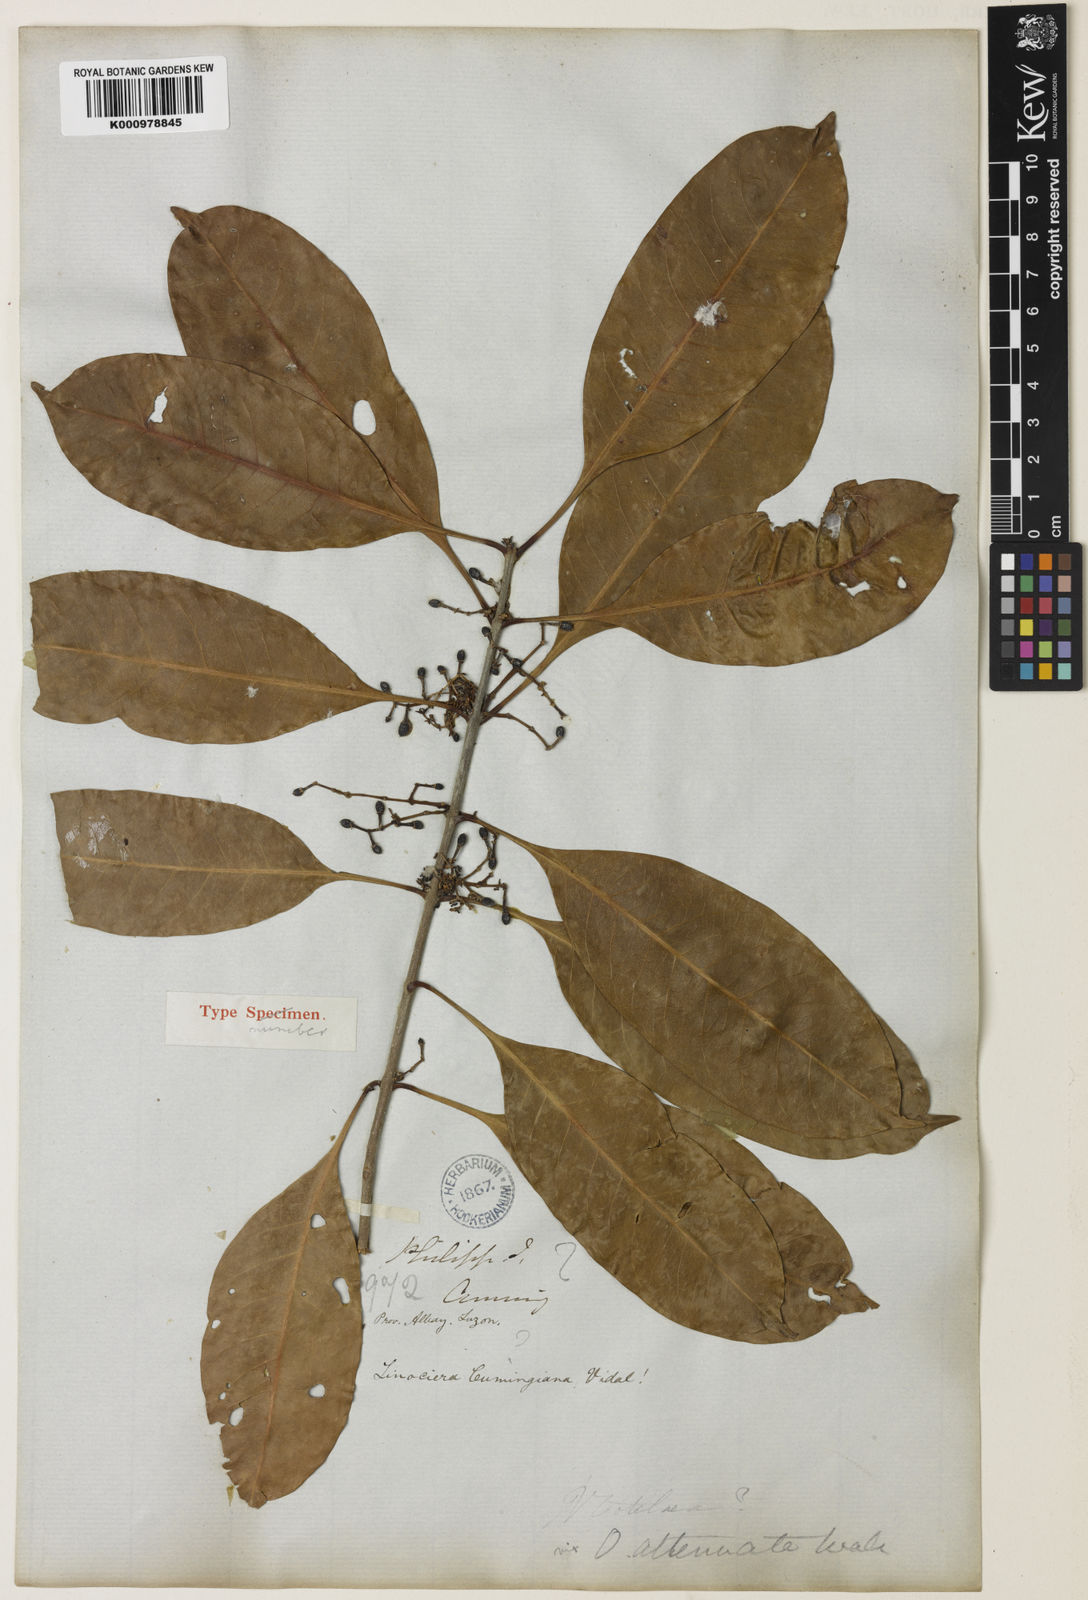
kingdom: Plantae
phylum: Tracheophyta
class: Magnoliopsida
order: Lamiales
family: Oleaceae
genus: Chionanthus
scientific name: Chionanthus ramiflorus
